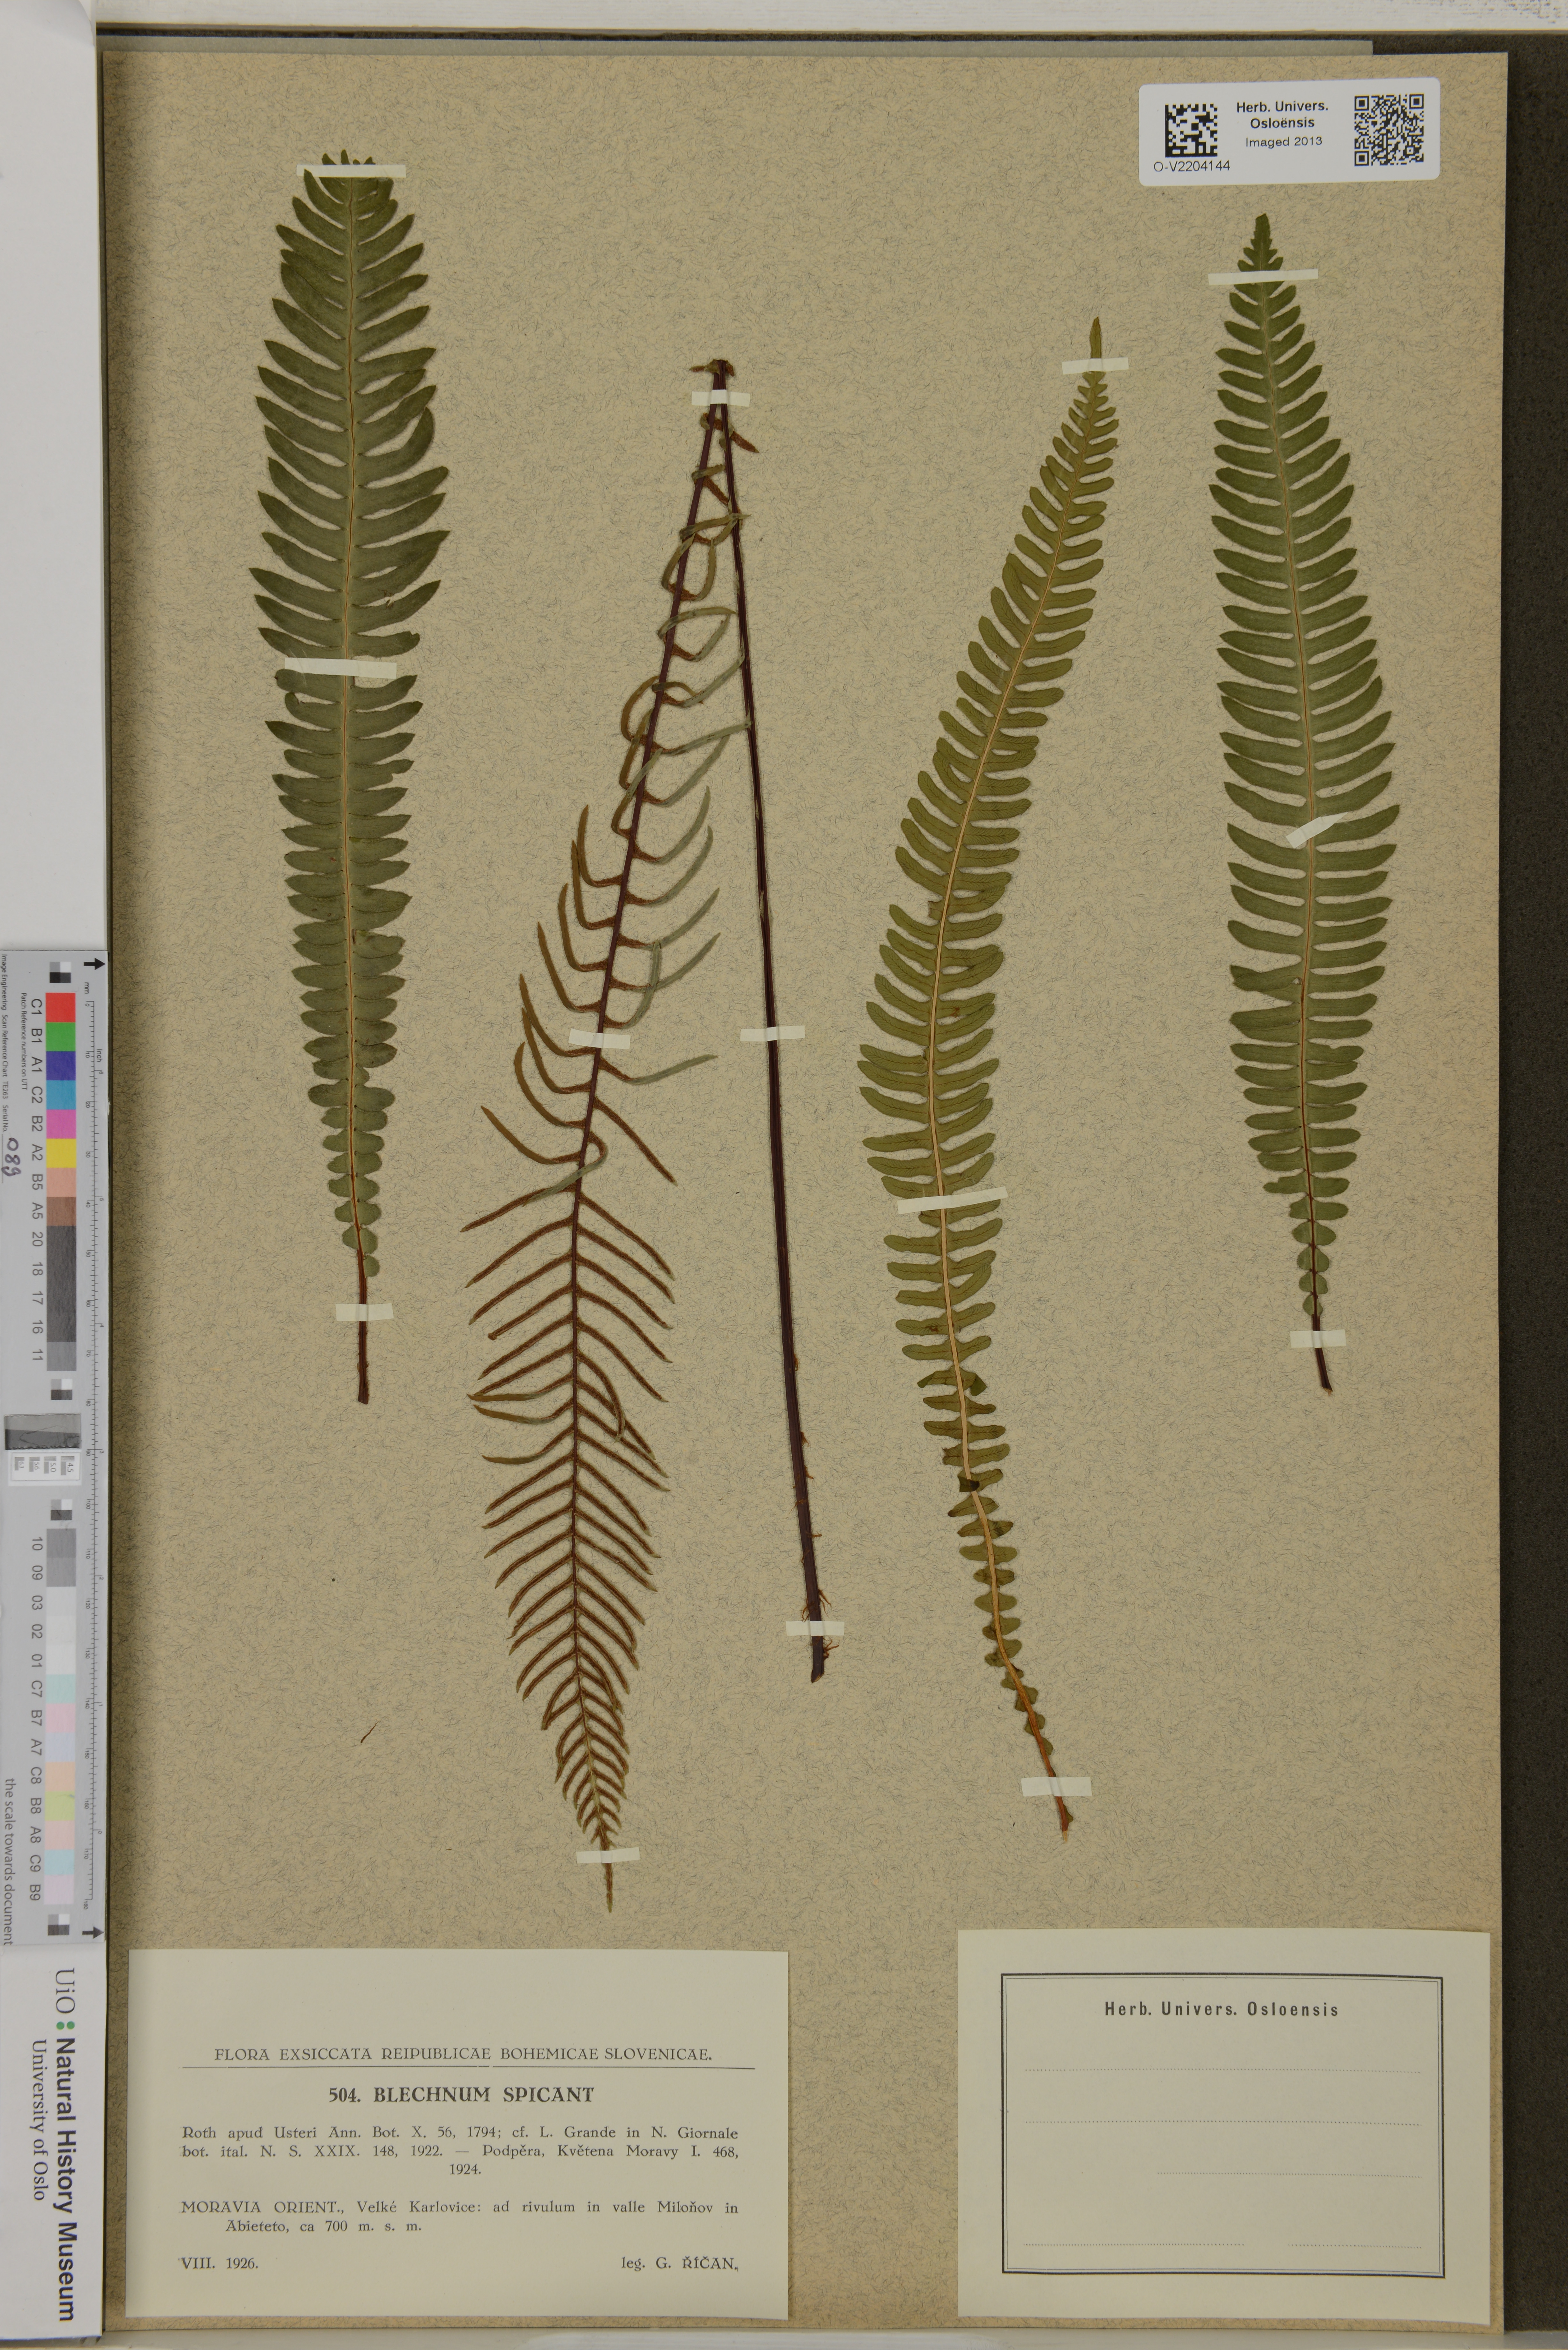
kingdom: Plantae
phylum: Tracheophyta
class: Polypodiopsida
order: Polypodiales
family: Blechnaceae
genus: Struthiopteris
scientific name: Struthiopteris spicant
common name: Deer fern
